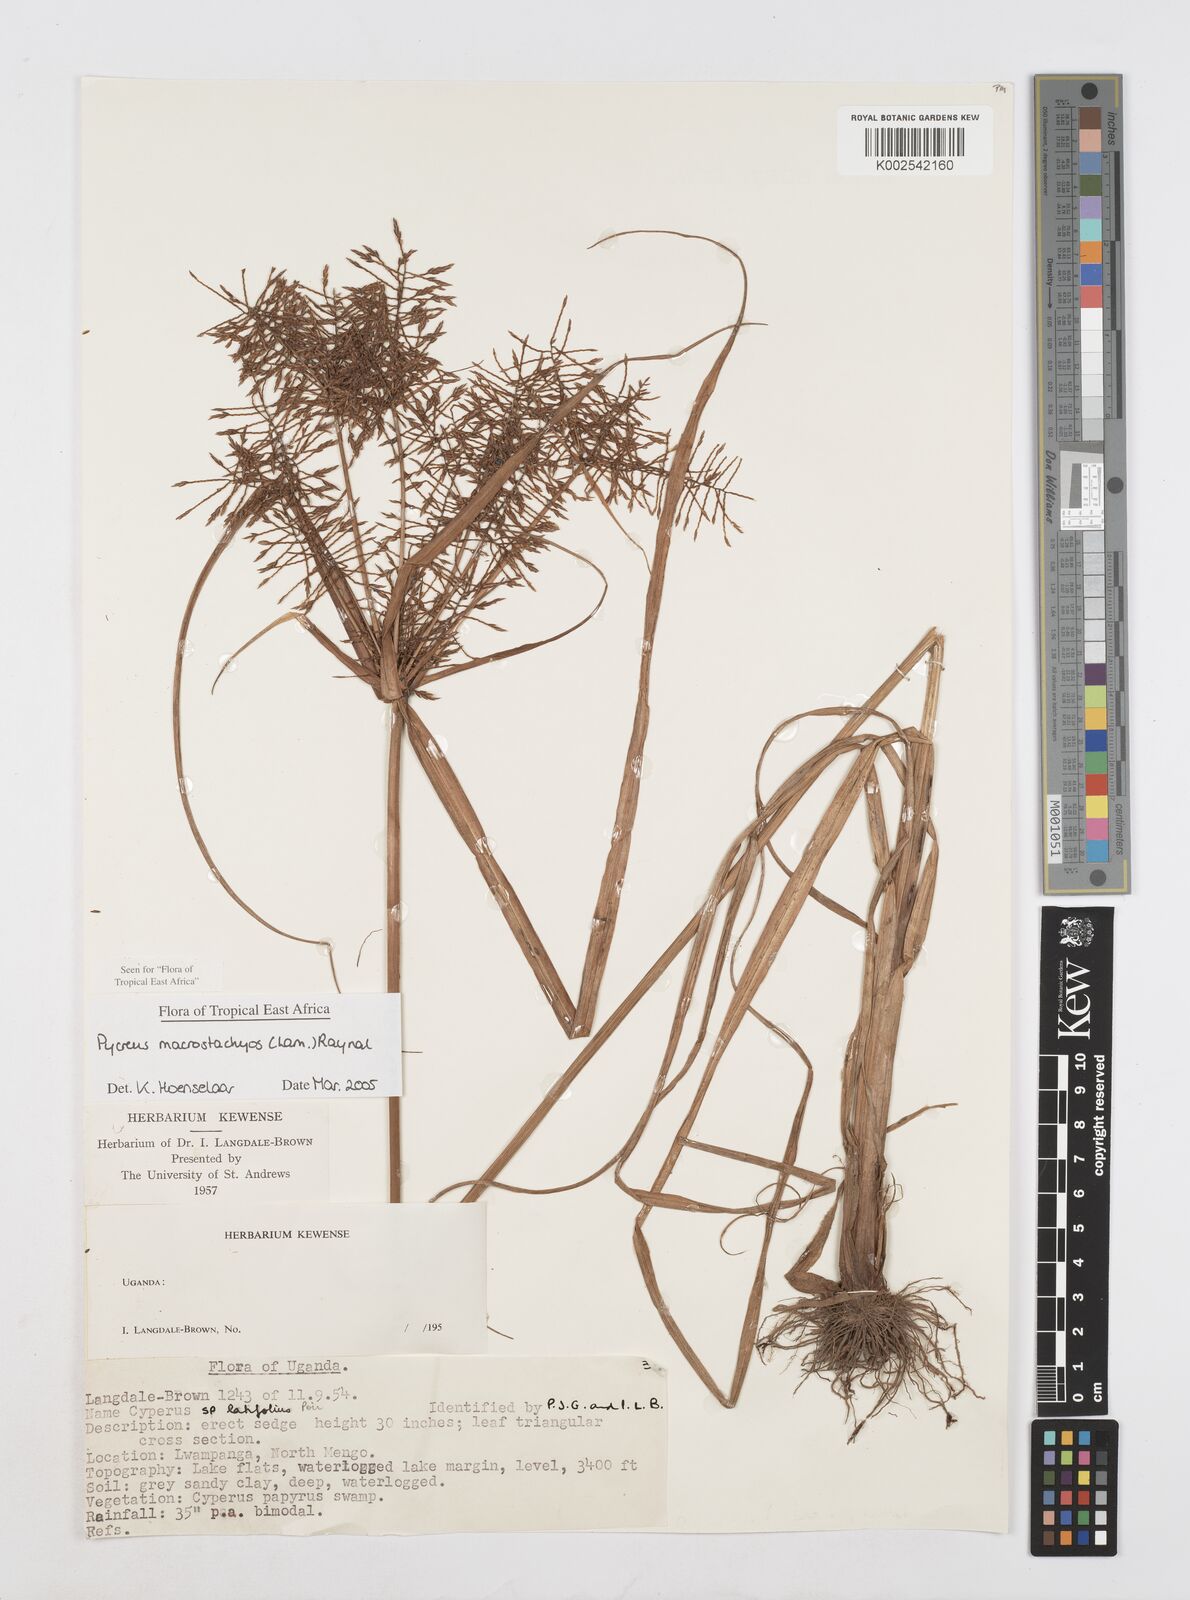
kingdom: Plantae
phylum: Tracheophyta
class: Liliopsida
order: Poales
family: Cyperaceae
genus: Cyperus
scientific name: Cyperus macrostachyos
